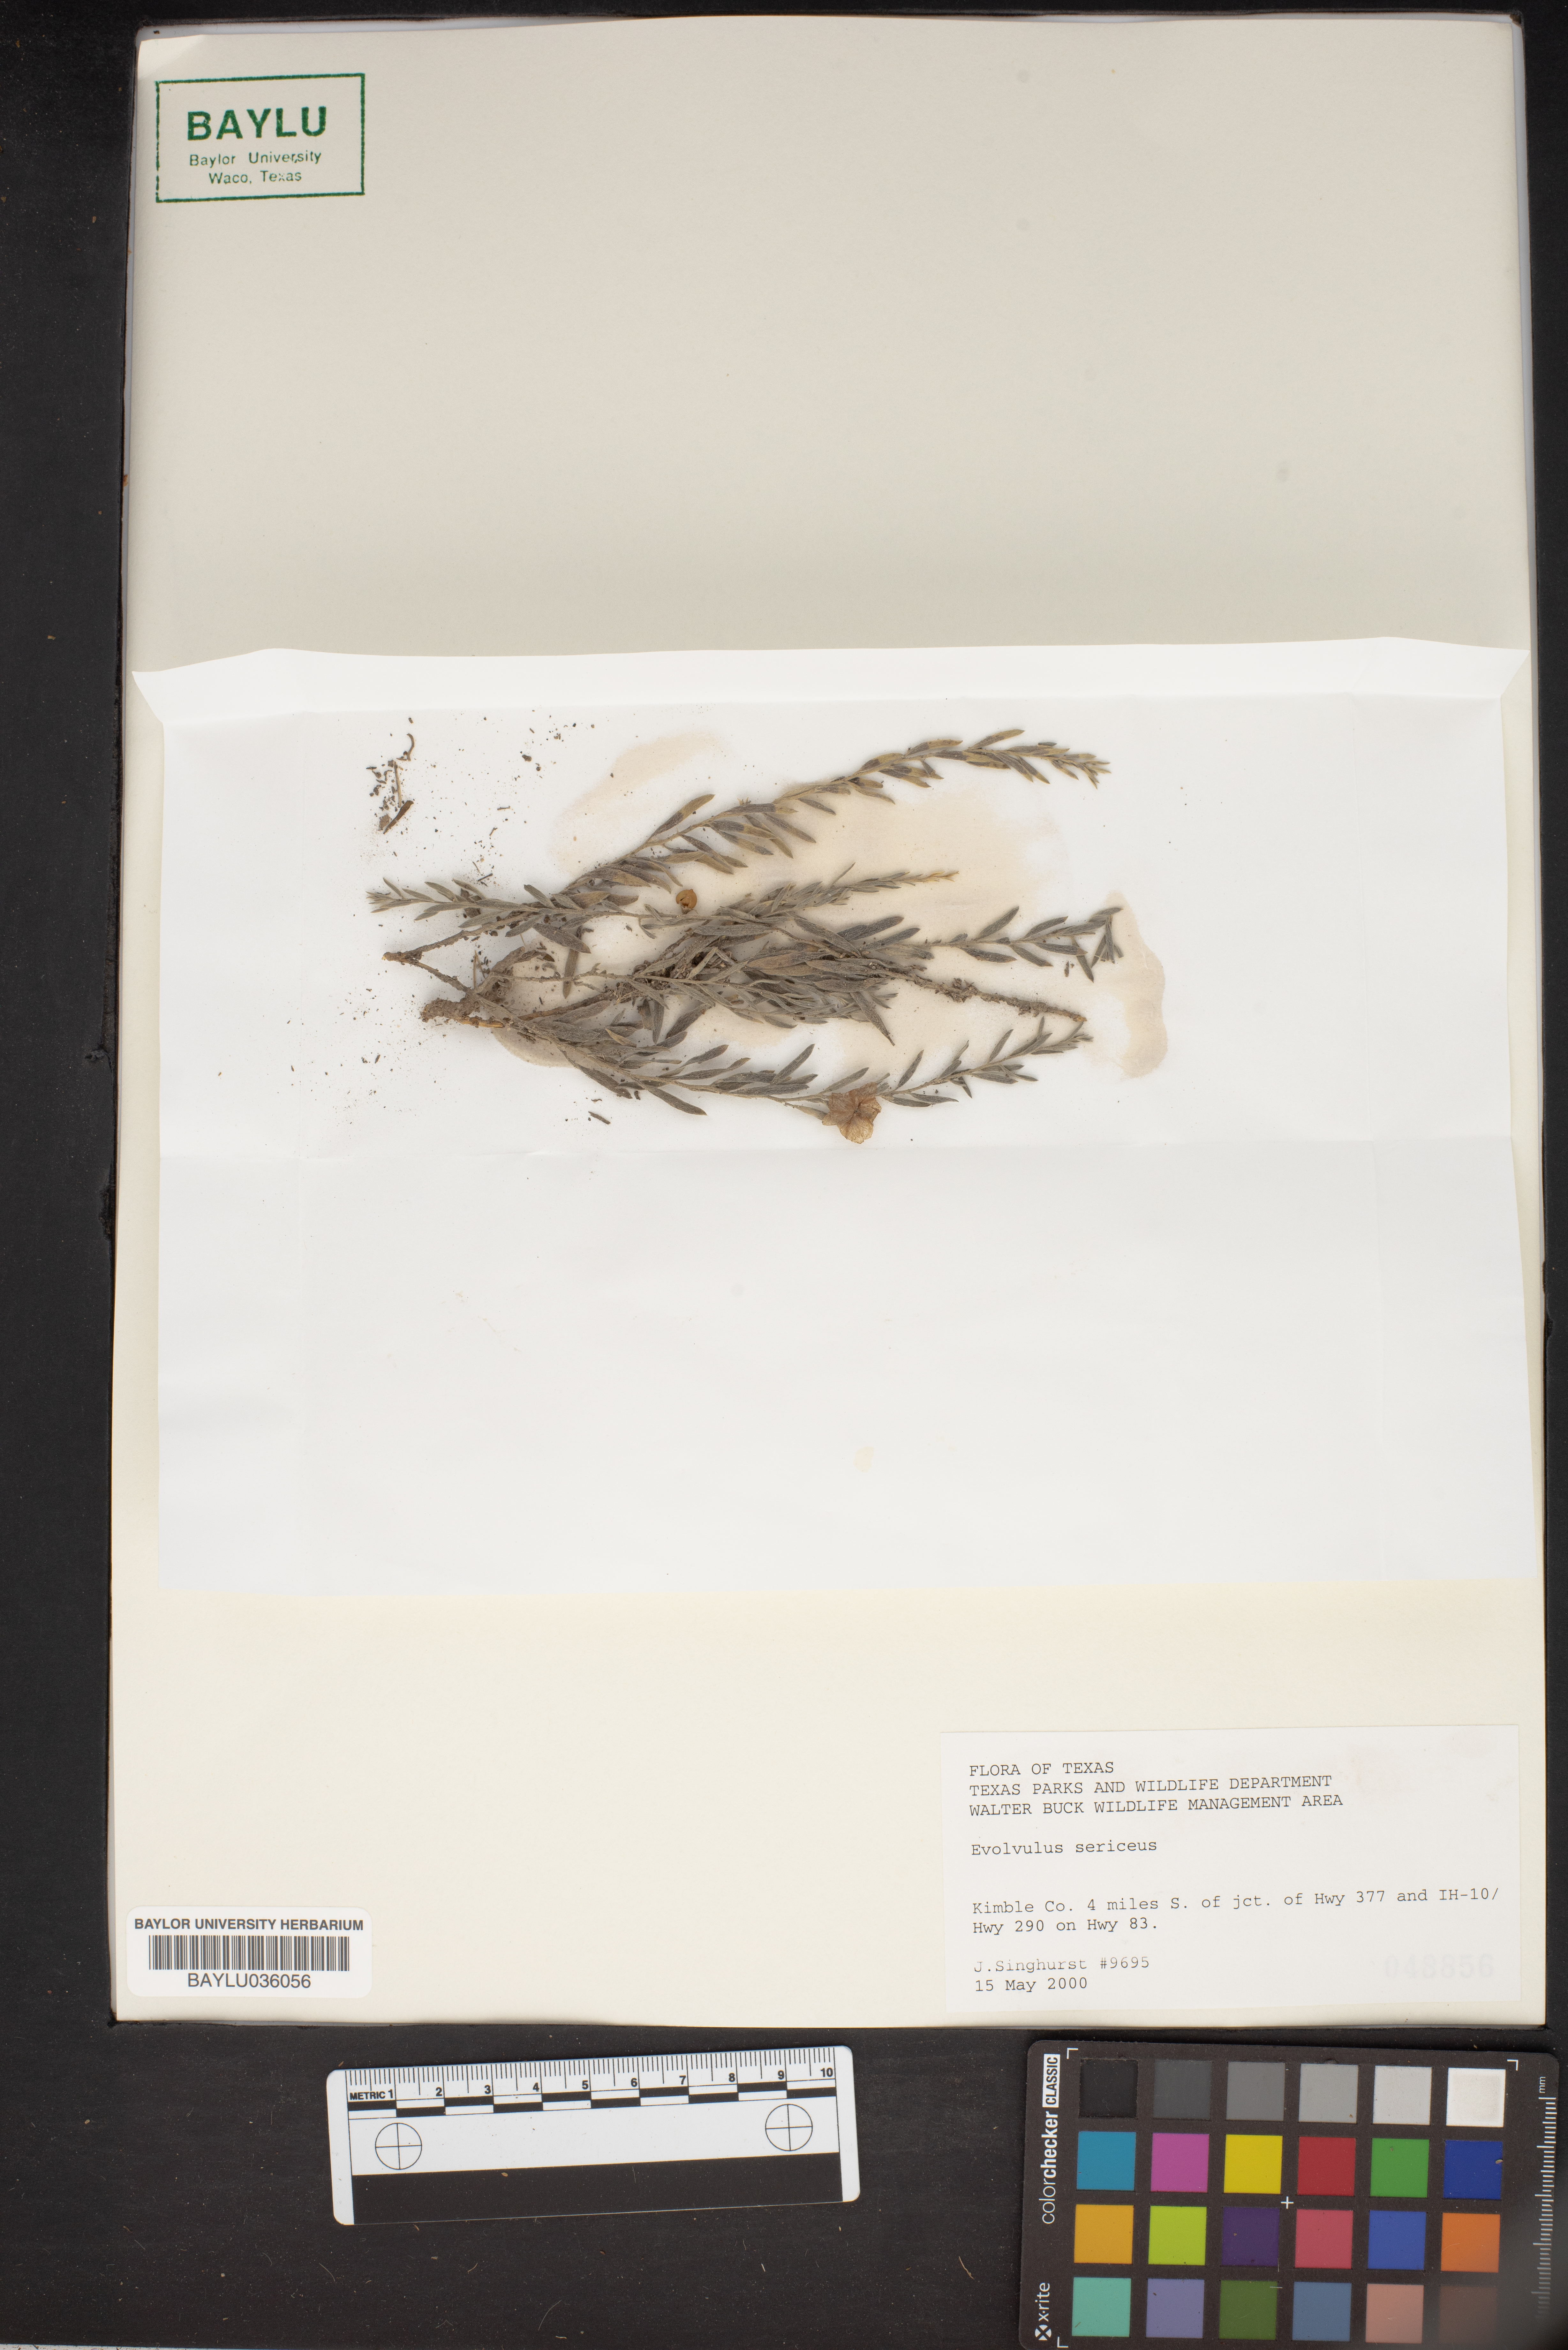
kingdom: Plantae
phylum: Tracheophyta
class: Magnoliopsida
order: Solanales
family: Convolvulaceae
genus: Evolvulus
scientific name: Evolvulus sericeus
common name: Blue dots
